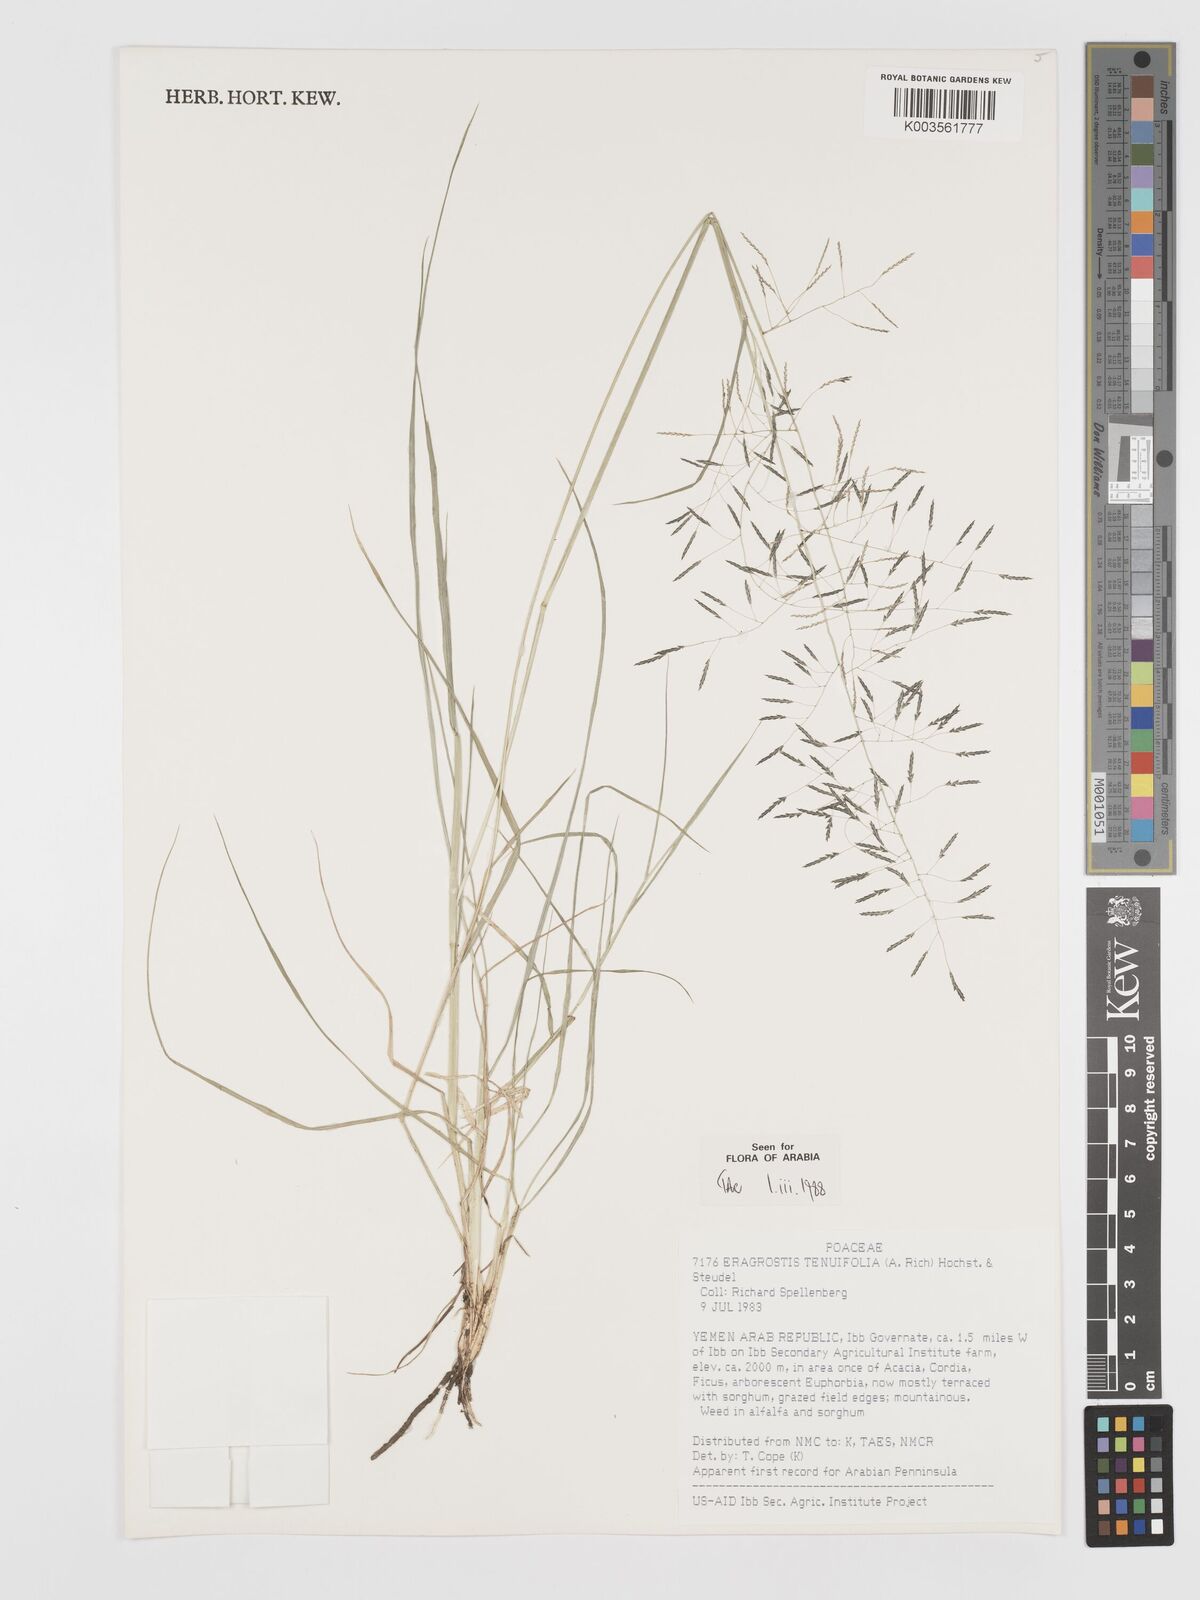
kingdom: Plantae
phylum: Tracheophyta
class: Liliopsida
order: Poales
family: Poaceae
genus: Eragrostis
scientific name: Eragrostis tenuifolia
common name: Elastic grass
